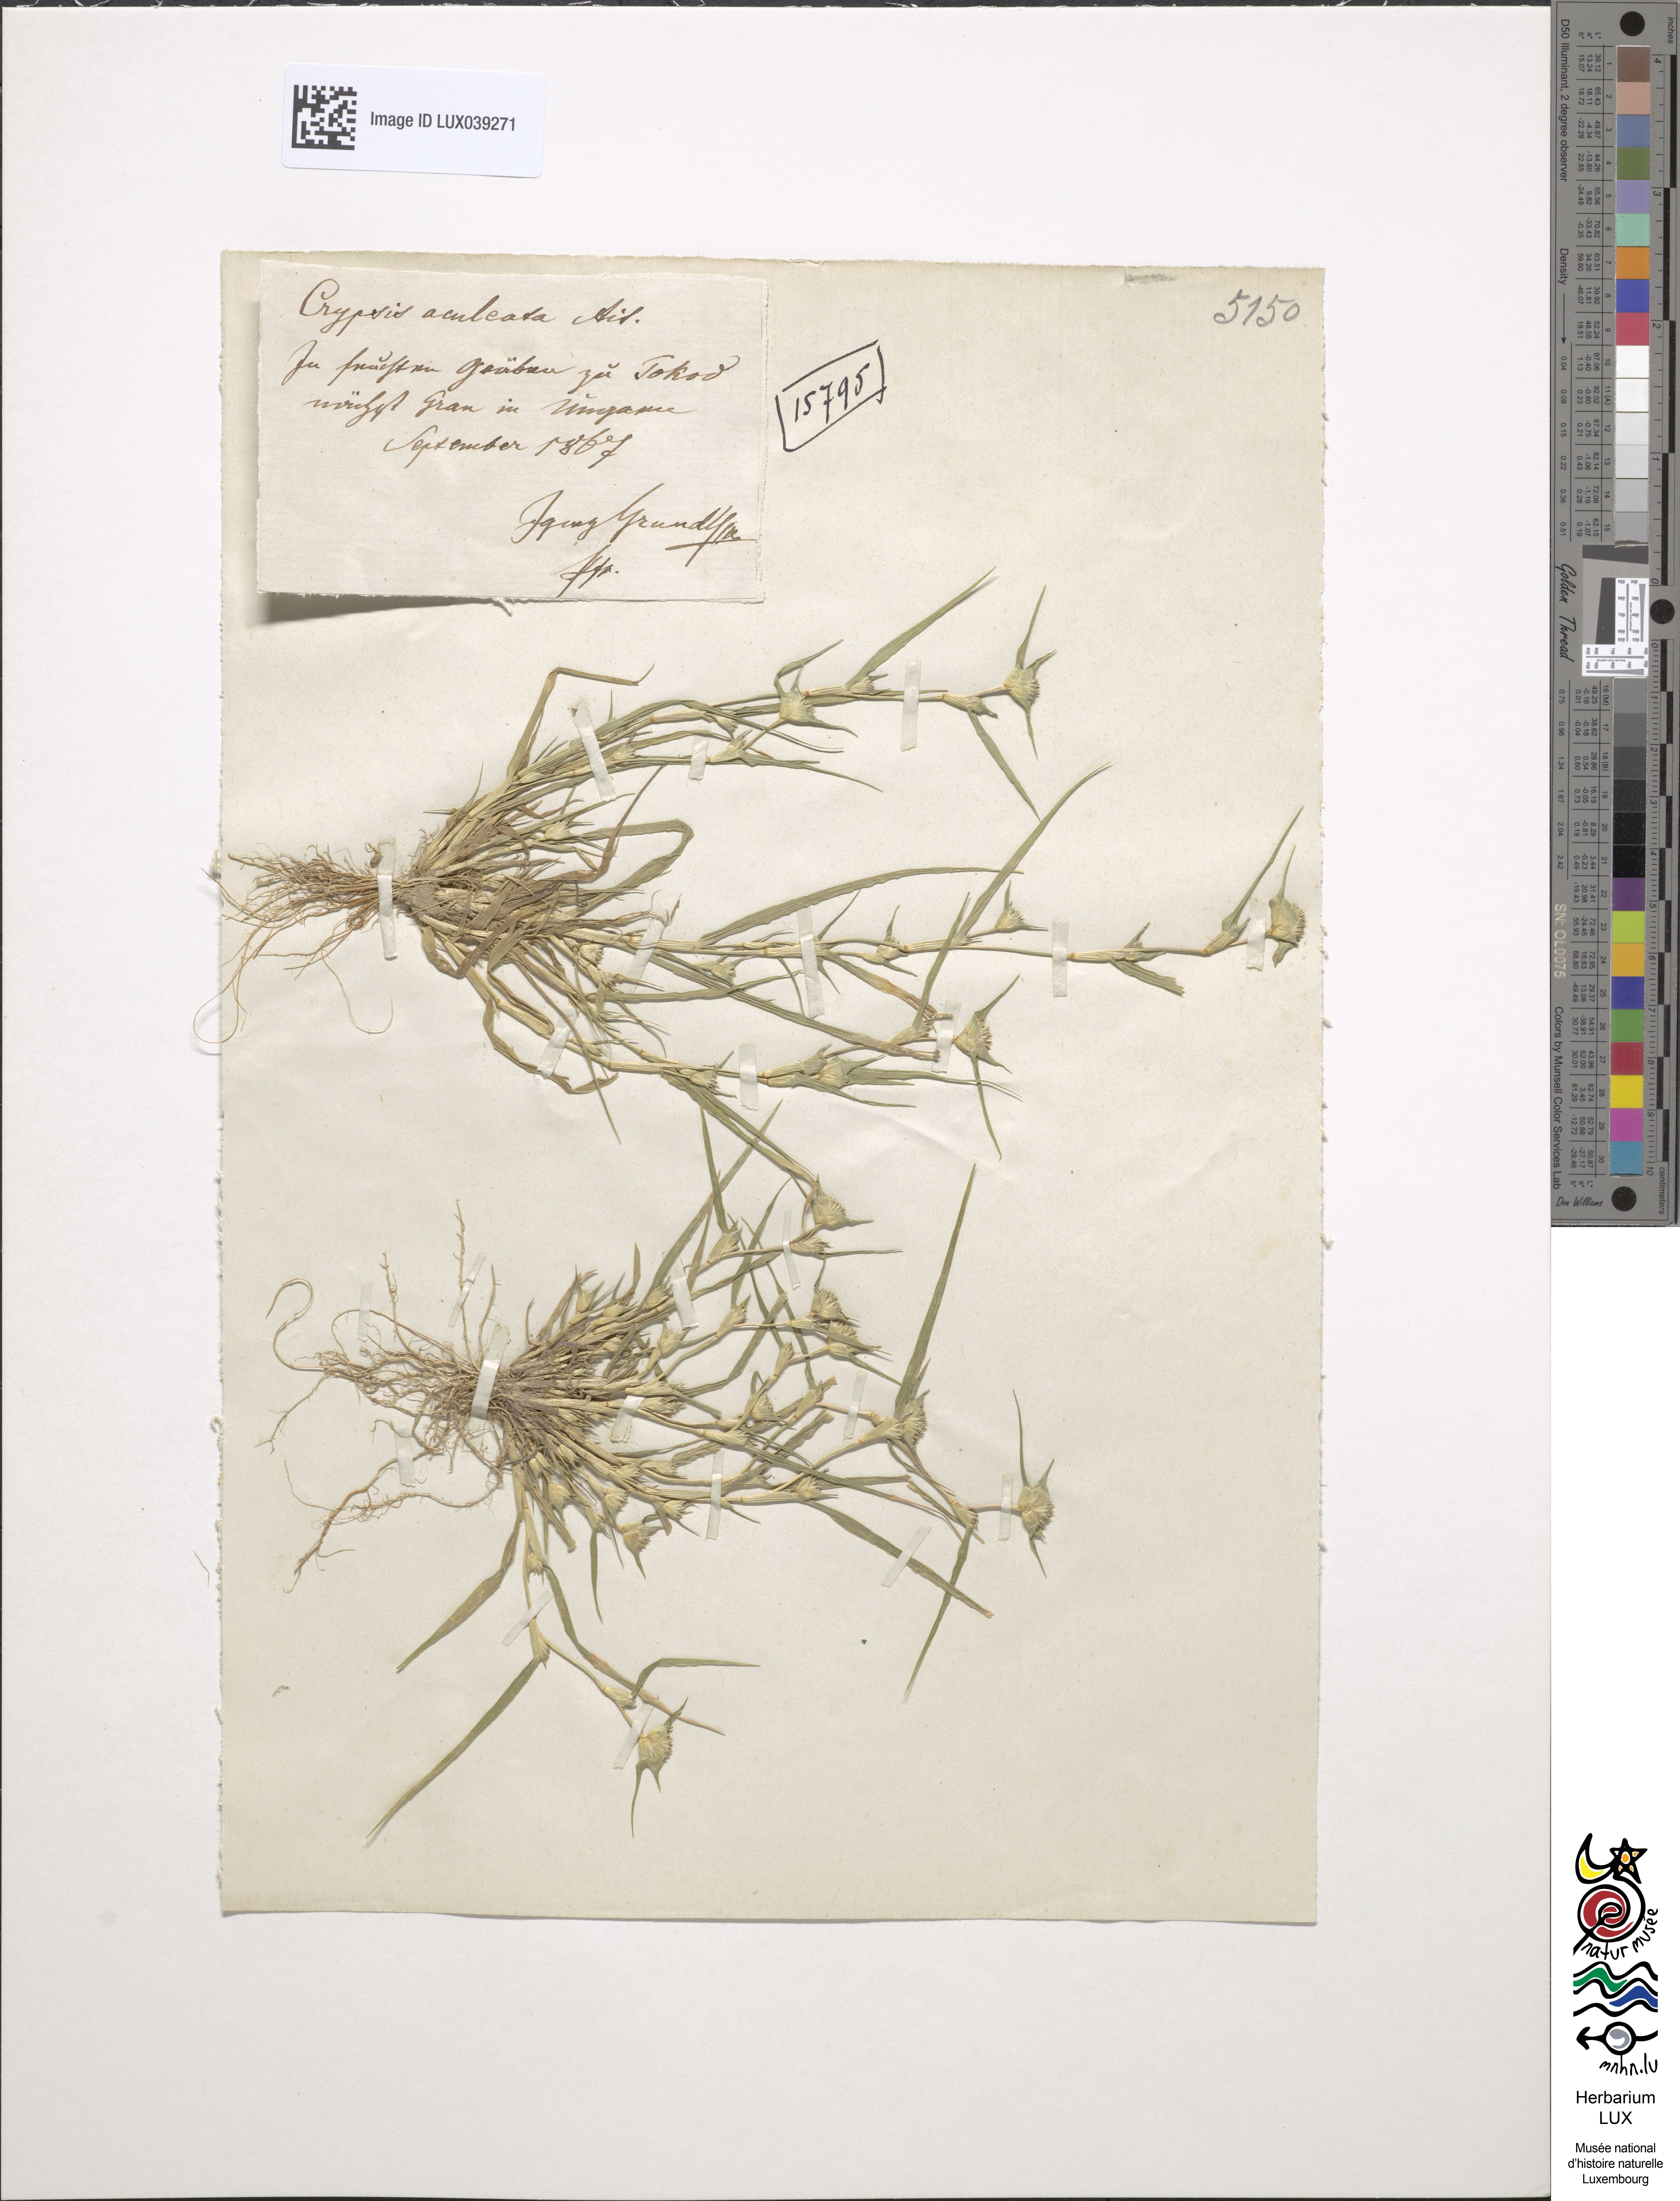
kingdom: Plantae
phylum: Tracheophyta
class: Liliopsida
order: Poales
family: Poaceae
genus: Sporobolus
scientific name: Sporobolus aculeatus
